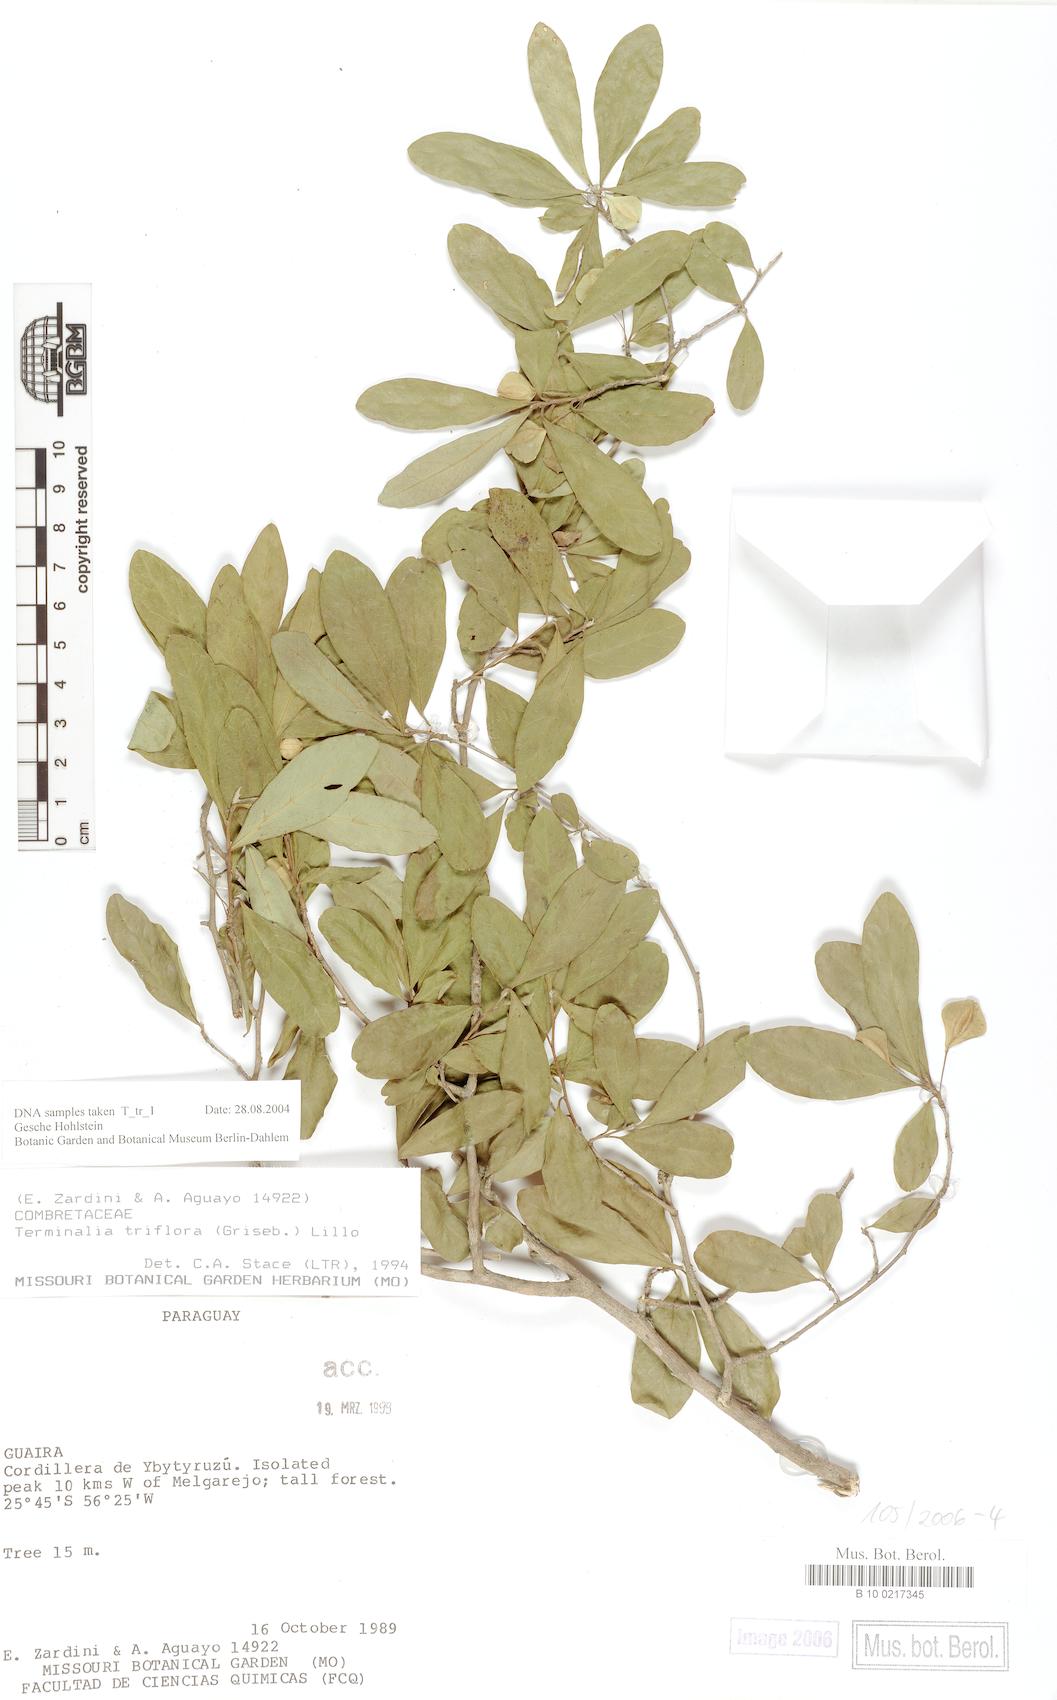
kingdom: Plantae
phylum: Tracheophyta
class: Magnoliopsida
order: Myrtales
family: Combretaceae
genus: Terminalia
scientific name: Terminalia triflora
